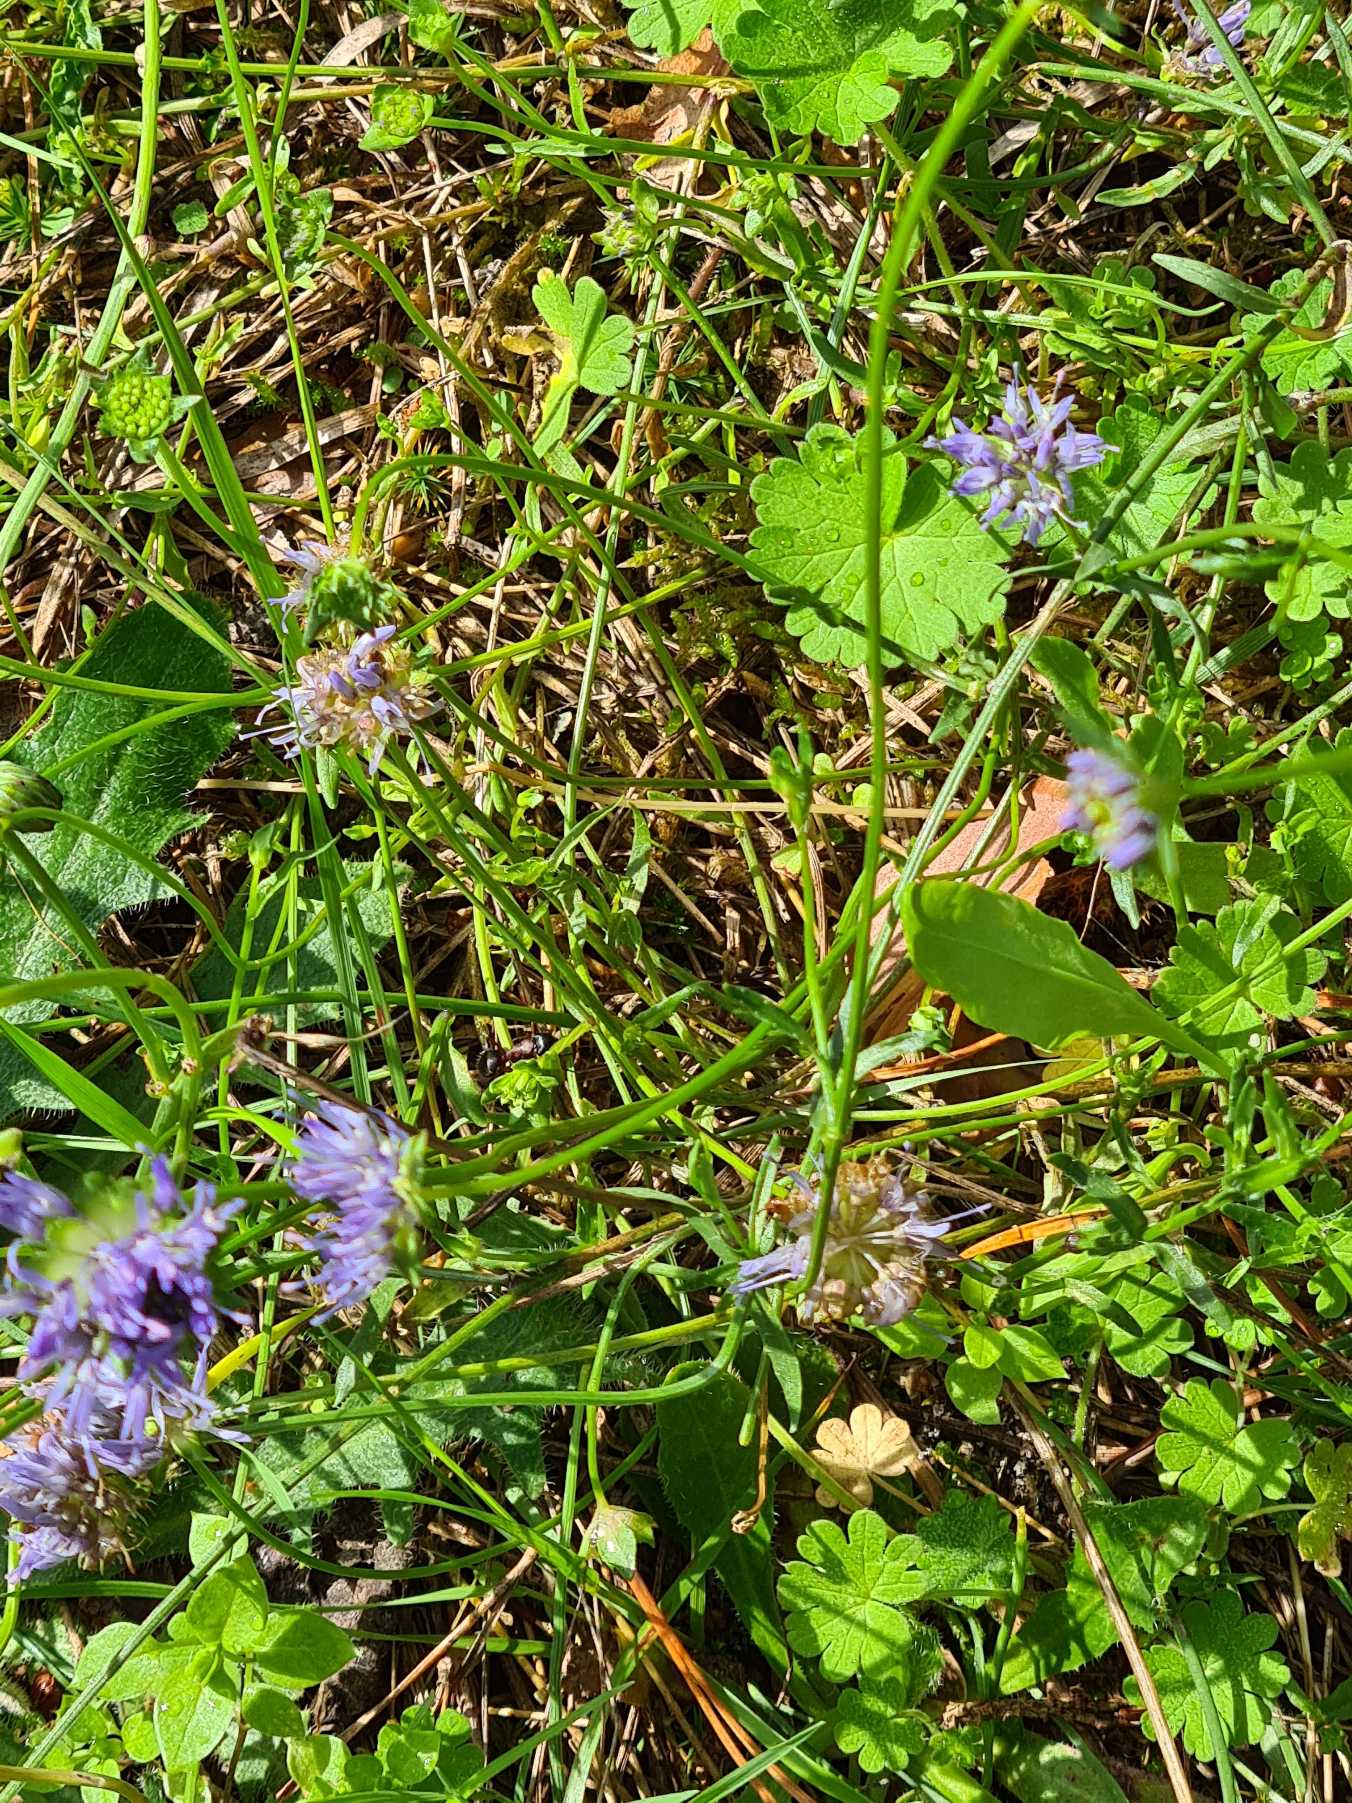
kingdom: Plantae
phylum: Tracheophyta
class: Magnoliopsida
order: Asterales
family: Campanulaceae
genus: Jasione
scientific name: Jasione montana
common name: Blåmunke
